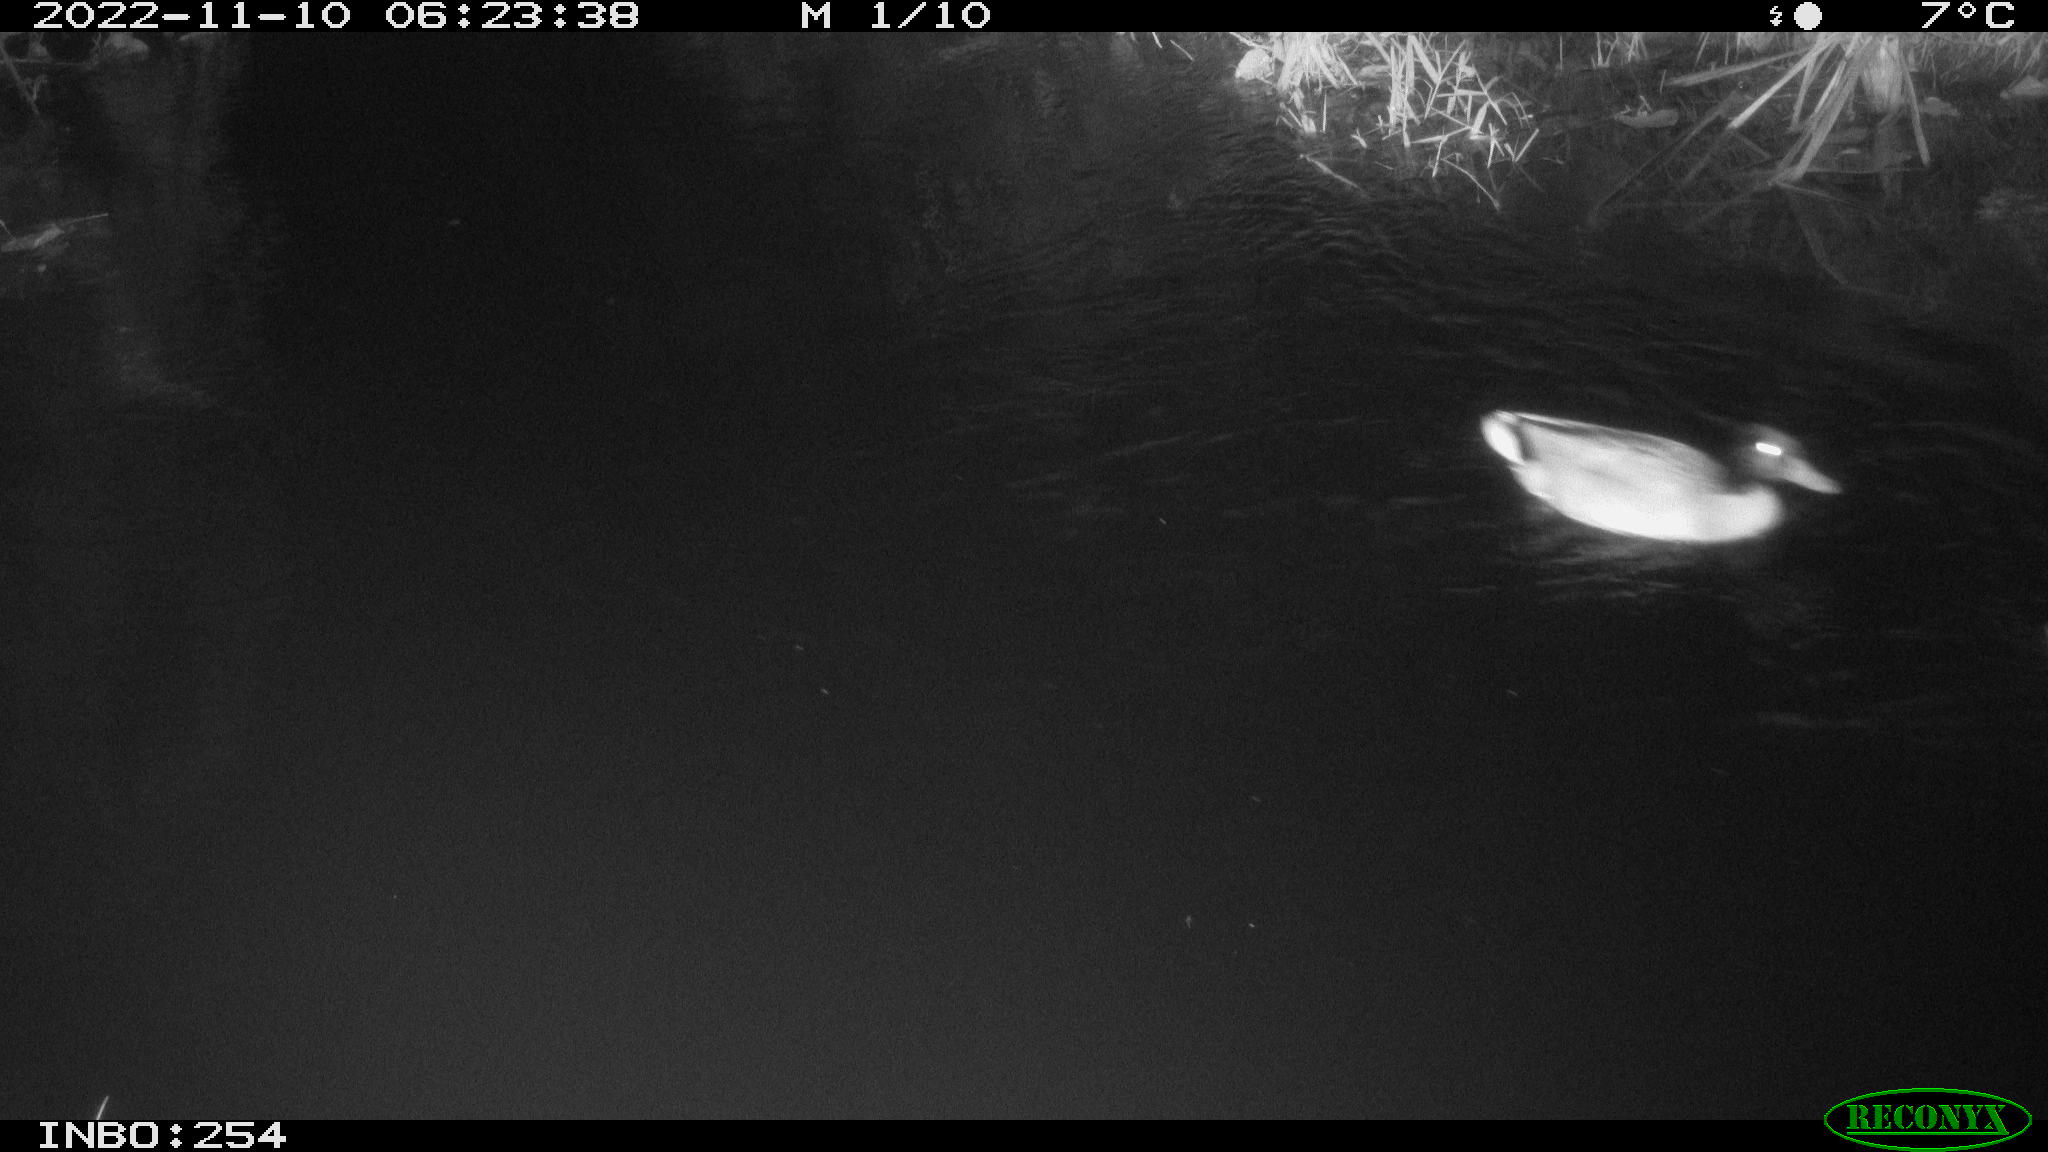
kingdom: Animalia
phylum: Chordata
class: Aves
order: Anseriformes
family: Anatidae
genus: Anas
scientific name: Anas
